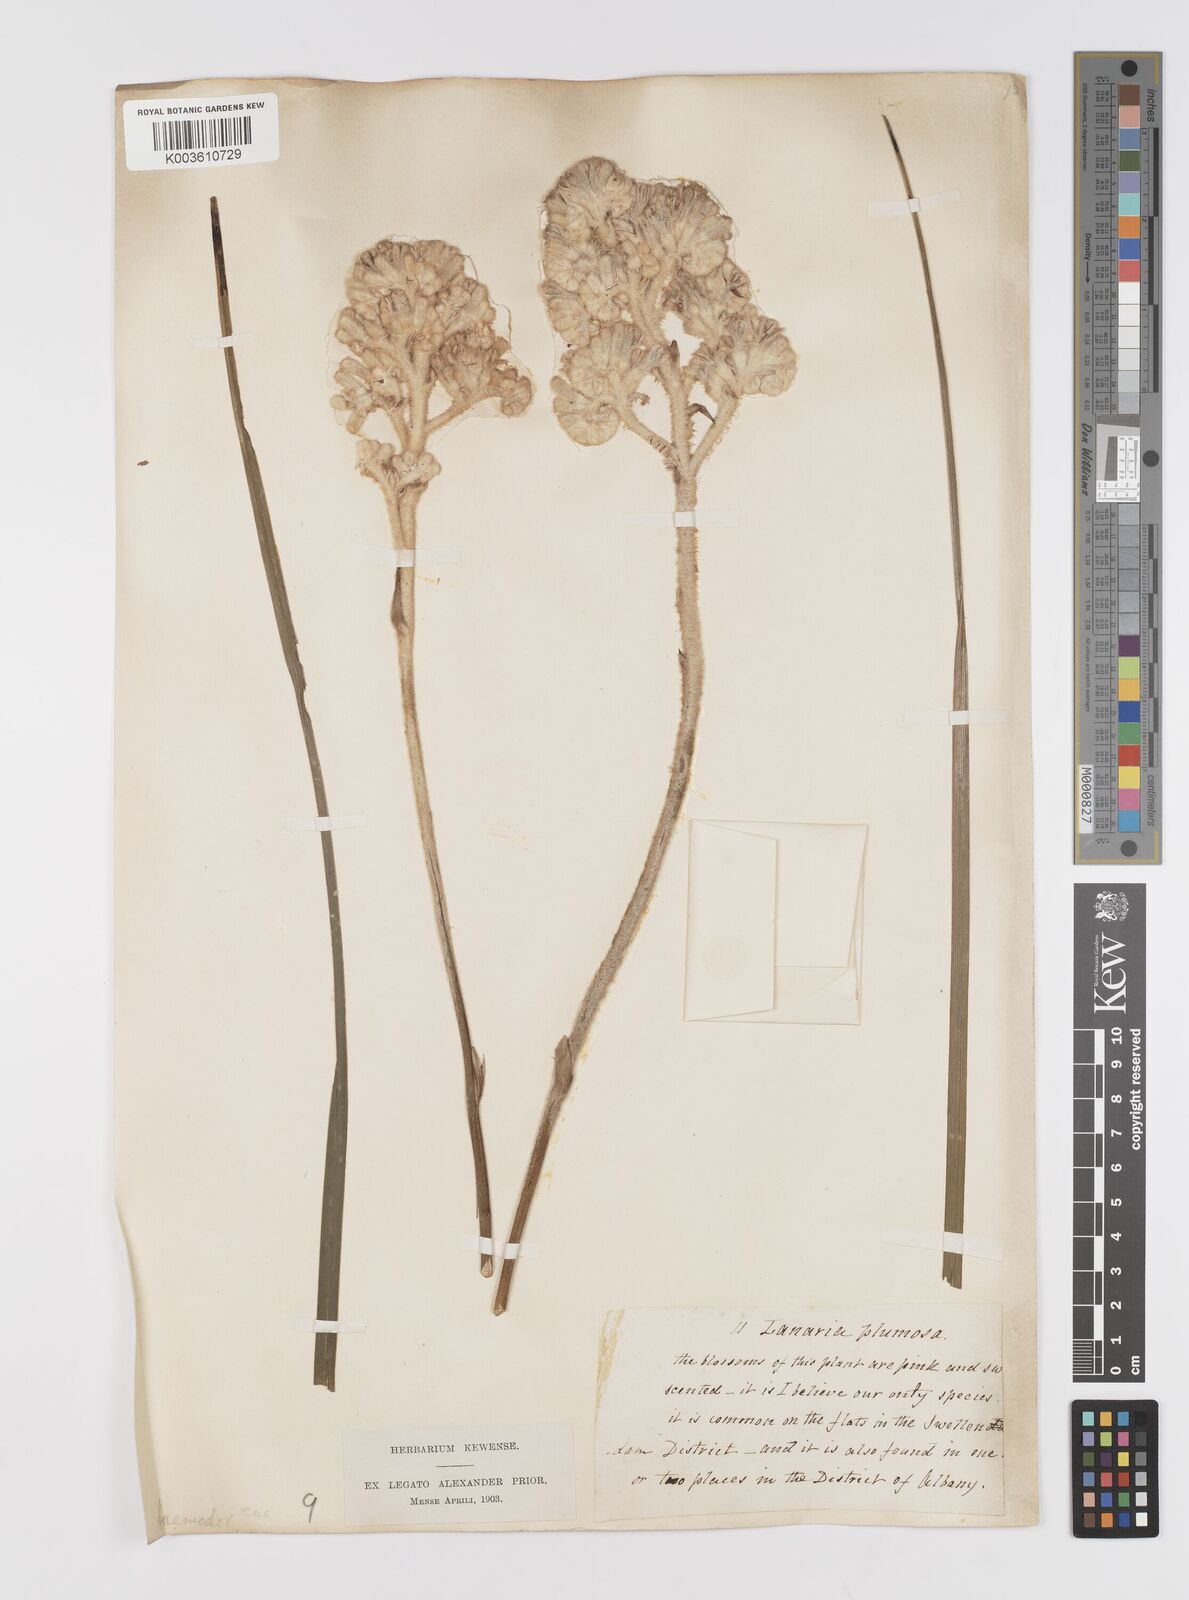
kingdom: Plantae
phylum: Tracheophyta
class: Liliopsida
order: Asparagales
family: Lanariaceae
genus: Lanaria
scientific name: Lanaria lanata
